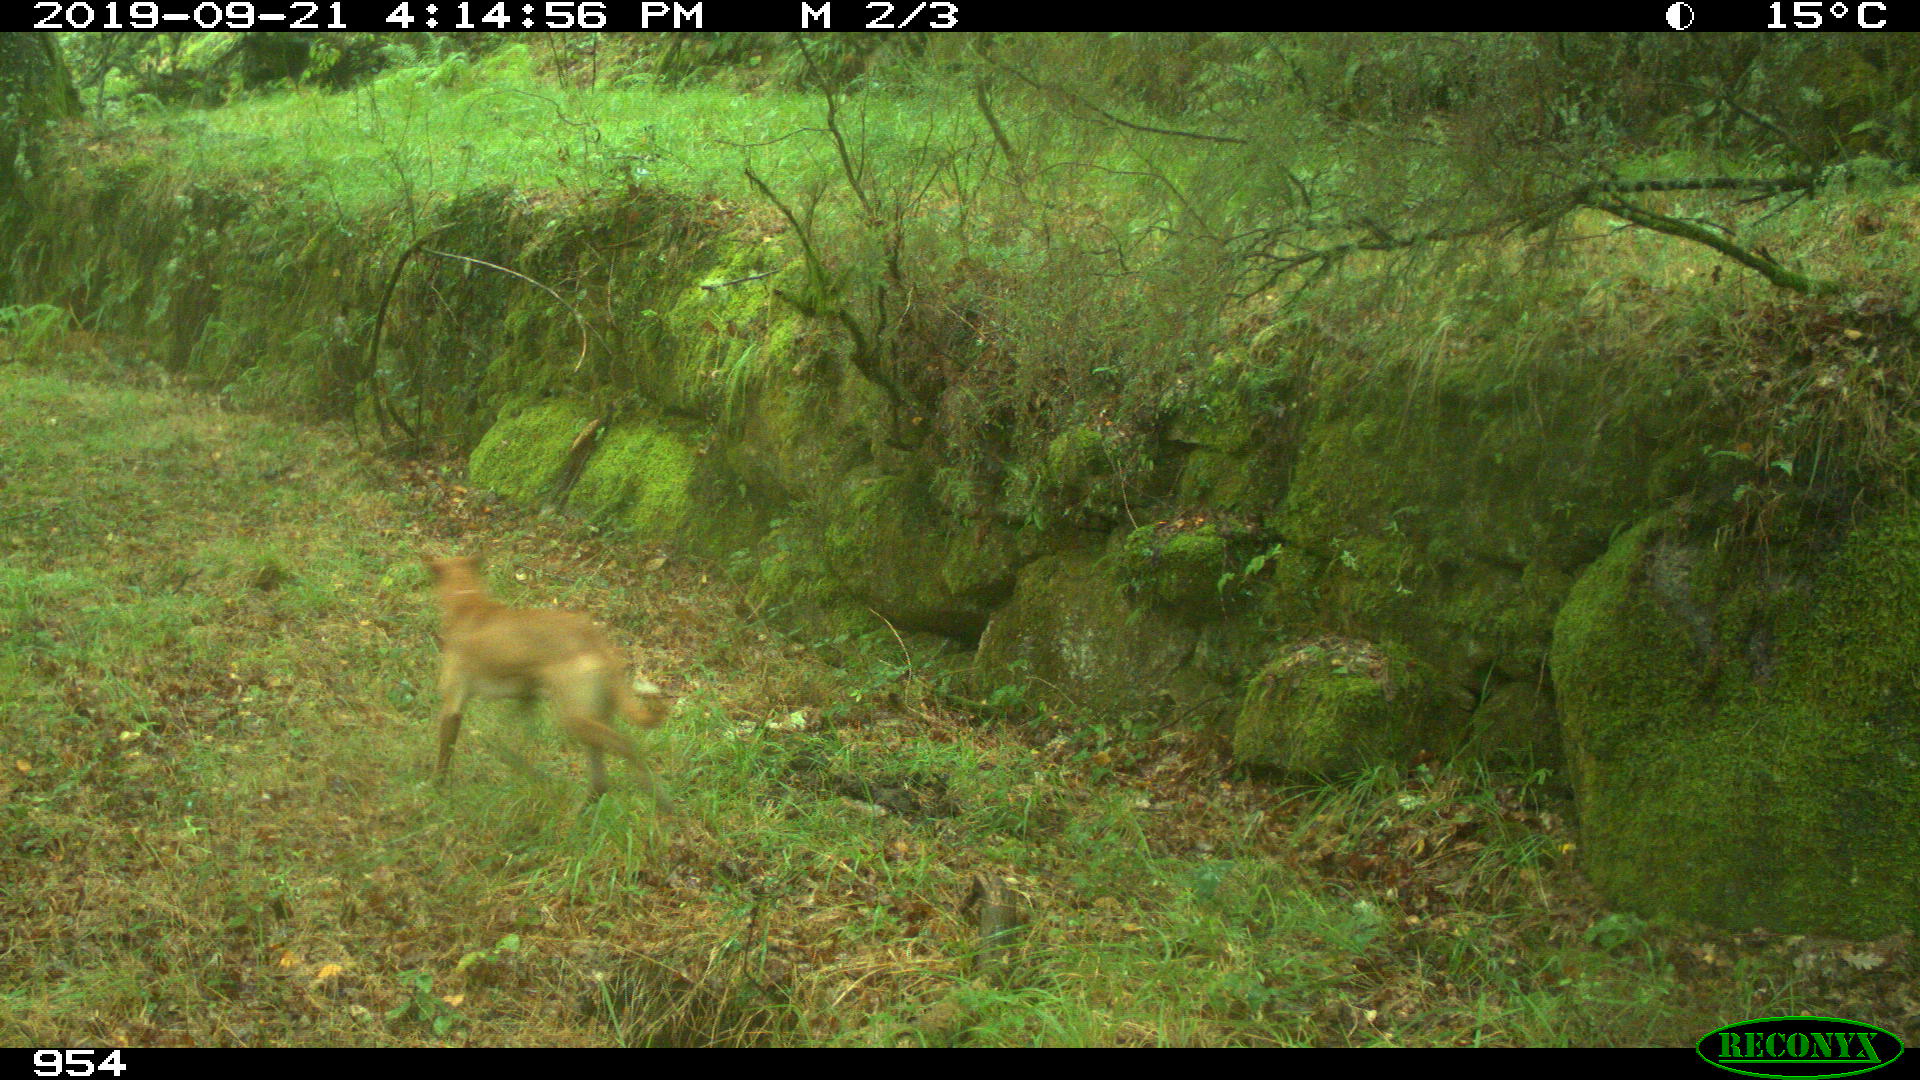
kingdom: Animalia
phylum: Chordata
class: Mammalia
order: Carnivora
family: Canidae
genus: Canis
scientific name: Canis lupus
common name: Gray wolf
